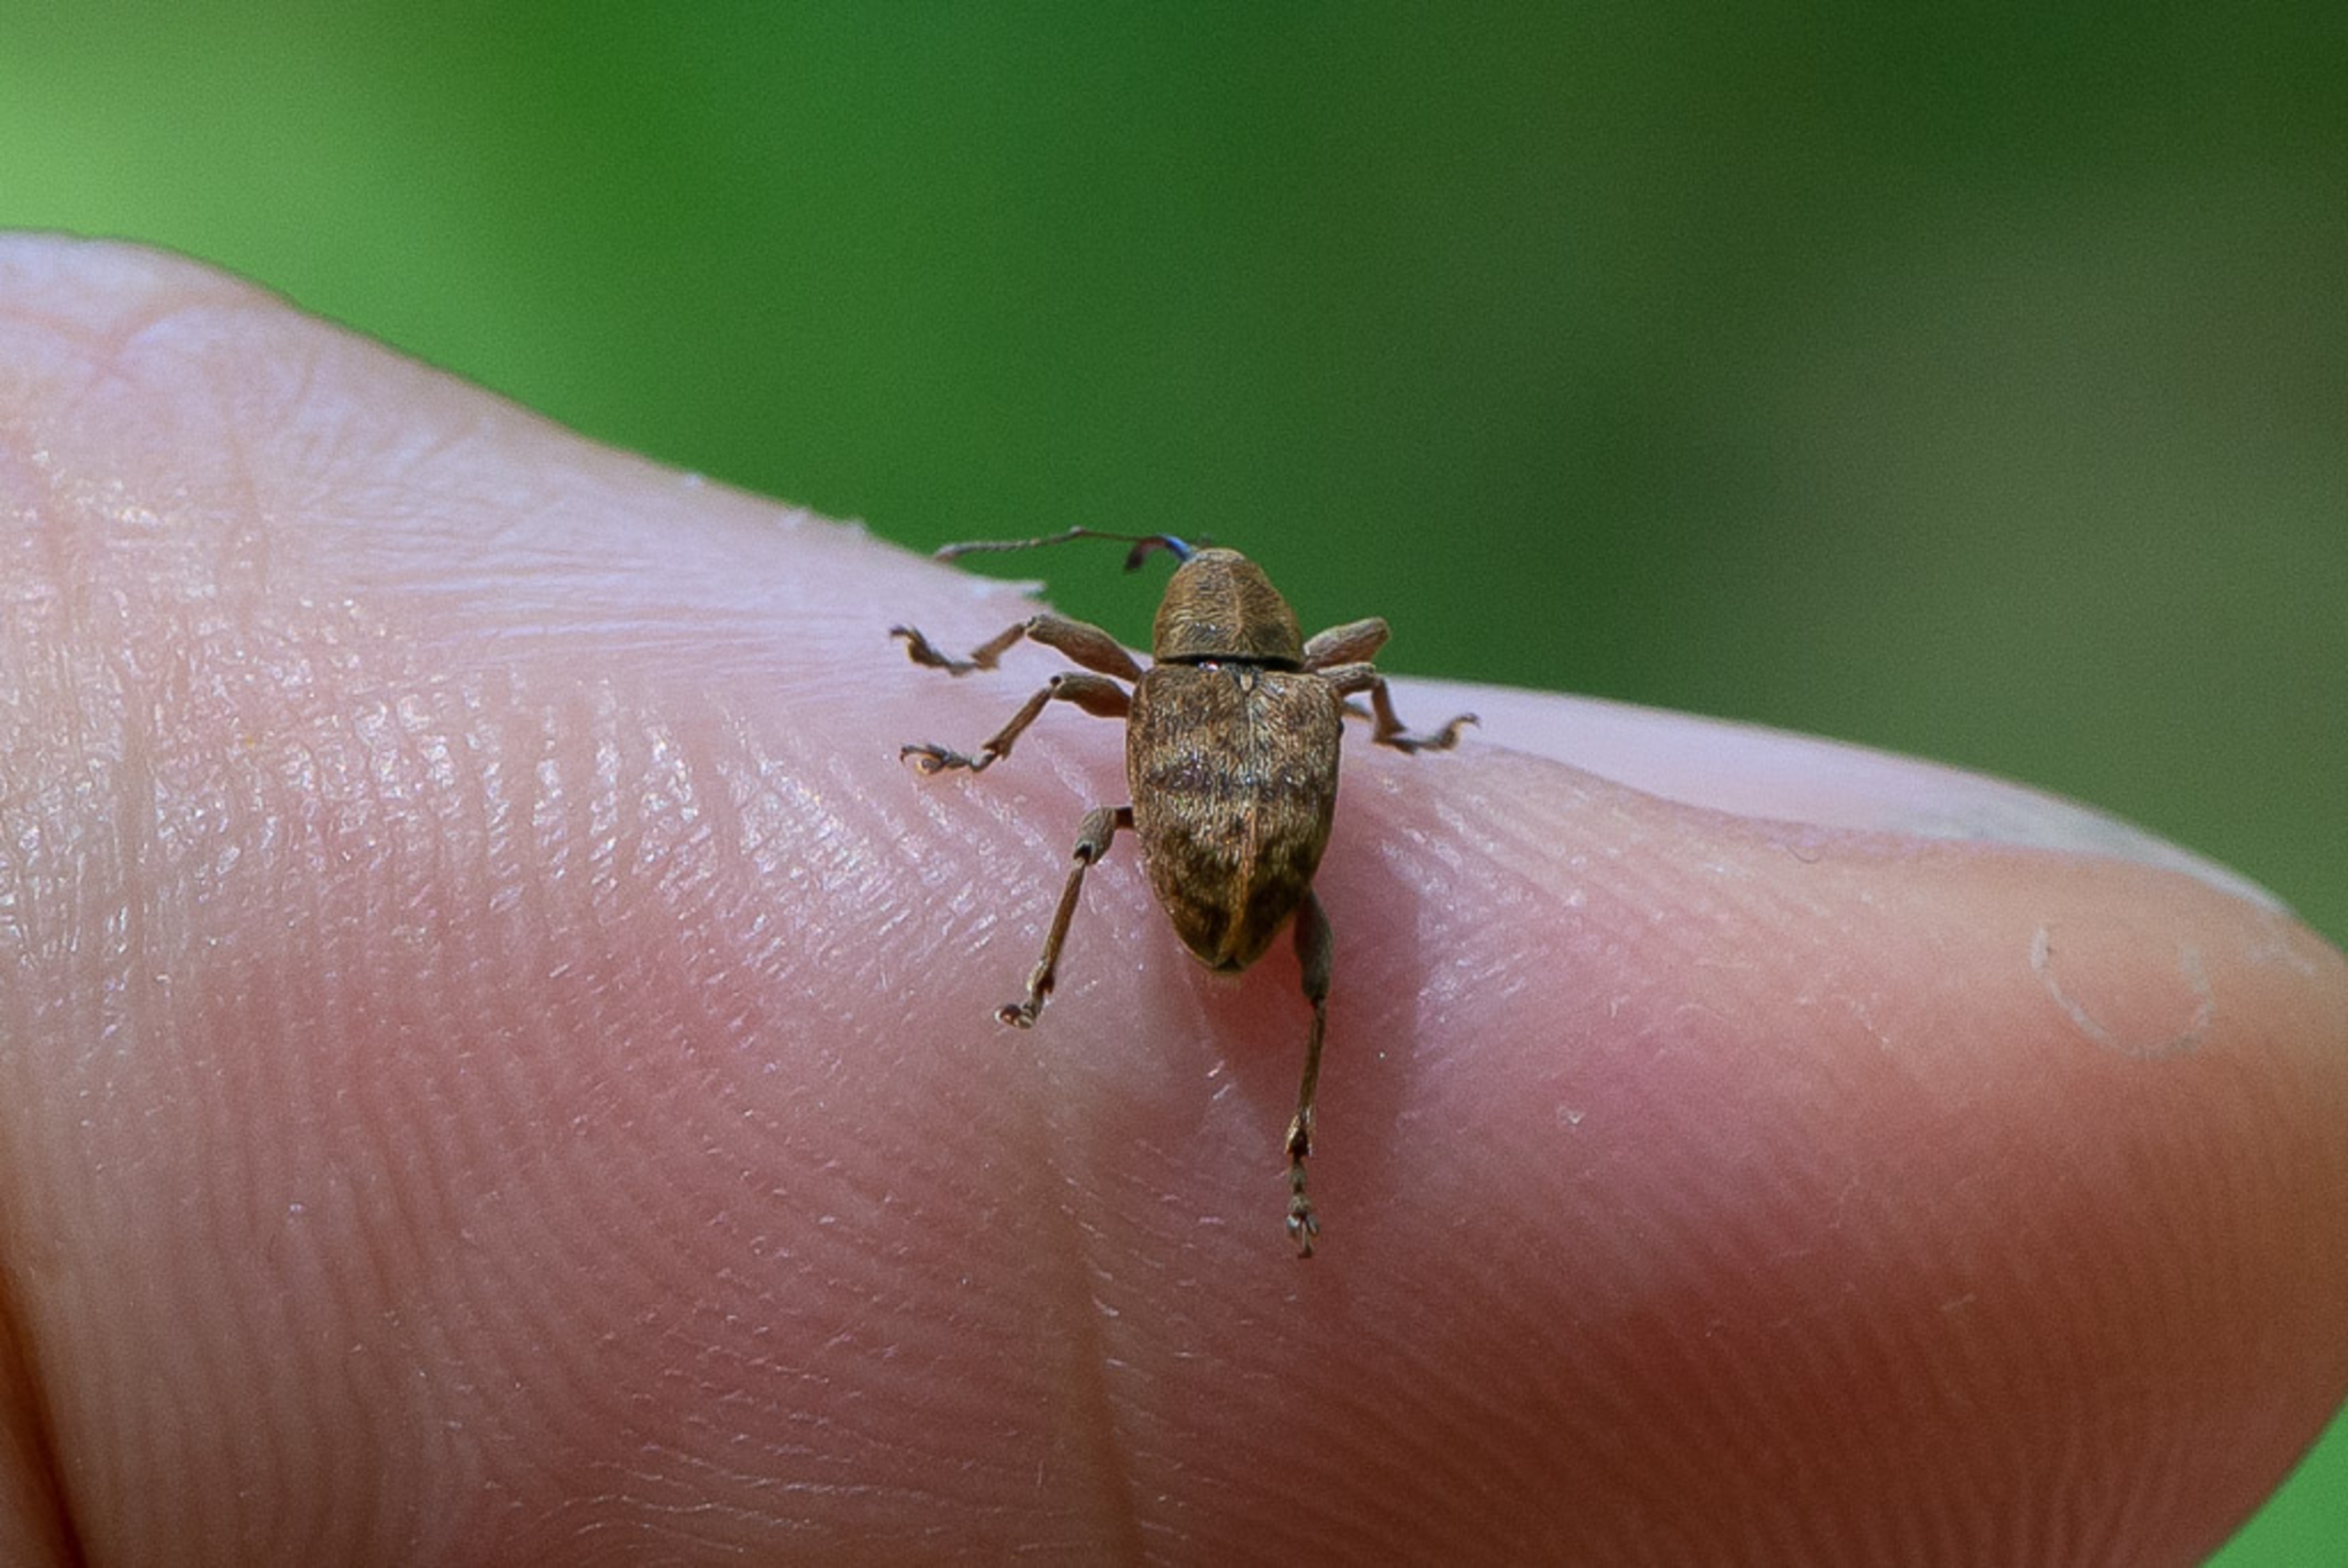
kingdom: Animalia
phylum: Arthropoda
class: Insecta
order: Coleoptera
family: Curculionidae
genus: Curculio
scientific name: Curculio venosus
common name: Agernsnudebille
